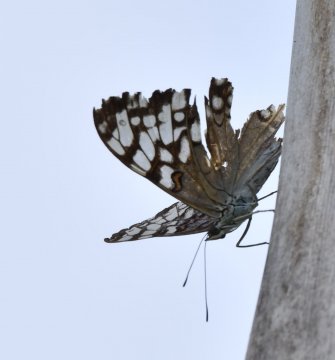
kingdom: Animalia
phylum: Arthropoda
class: Insecta
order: Lepidoptera
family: Nymphalidae
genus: Hamadryas
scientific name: Hamadryas feronia
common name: Variable Cracker
